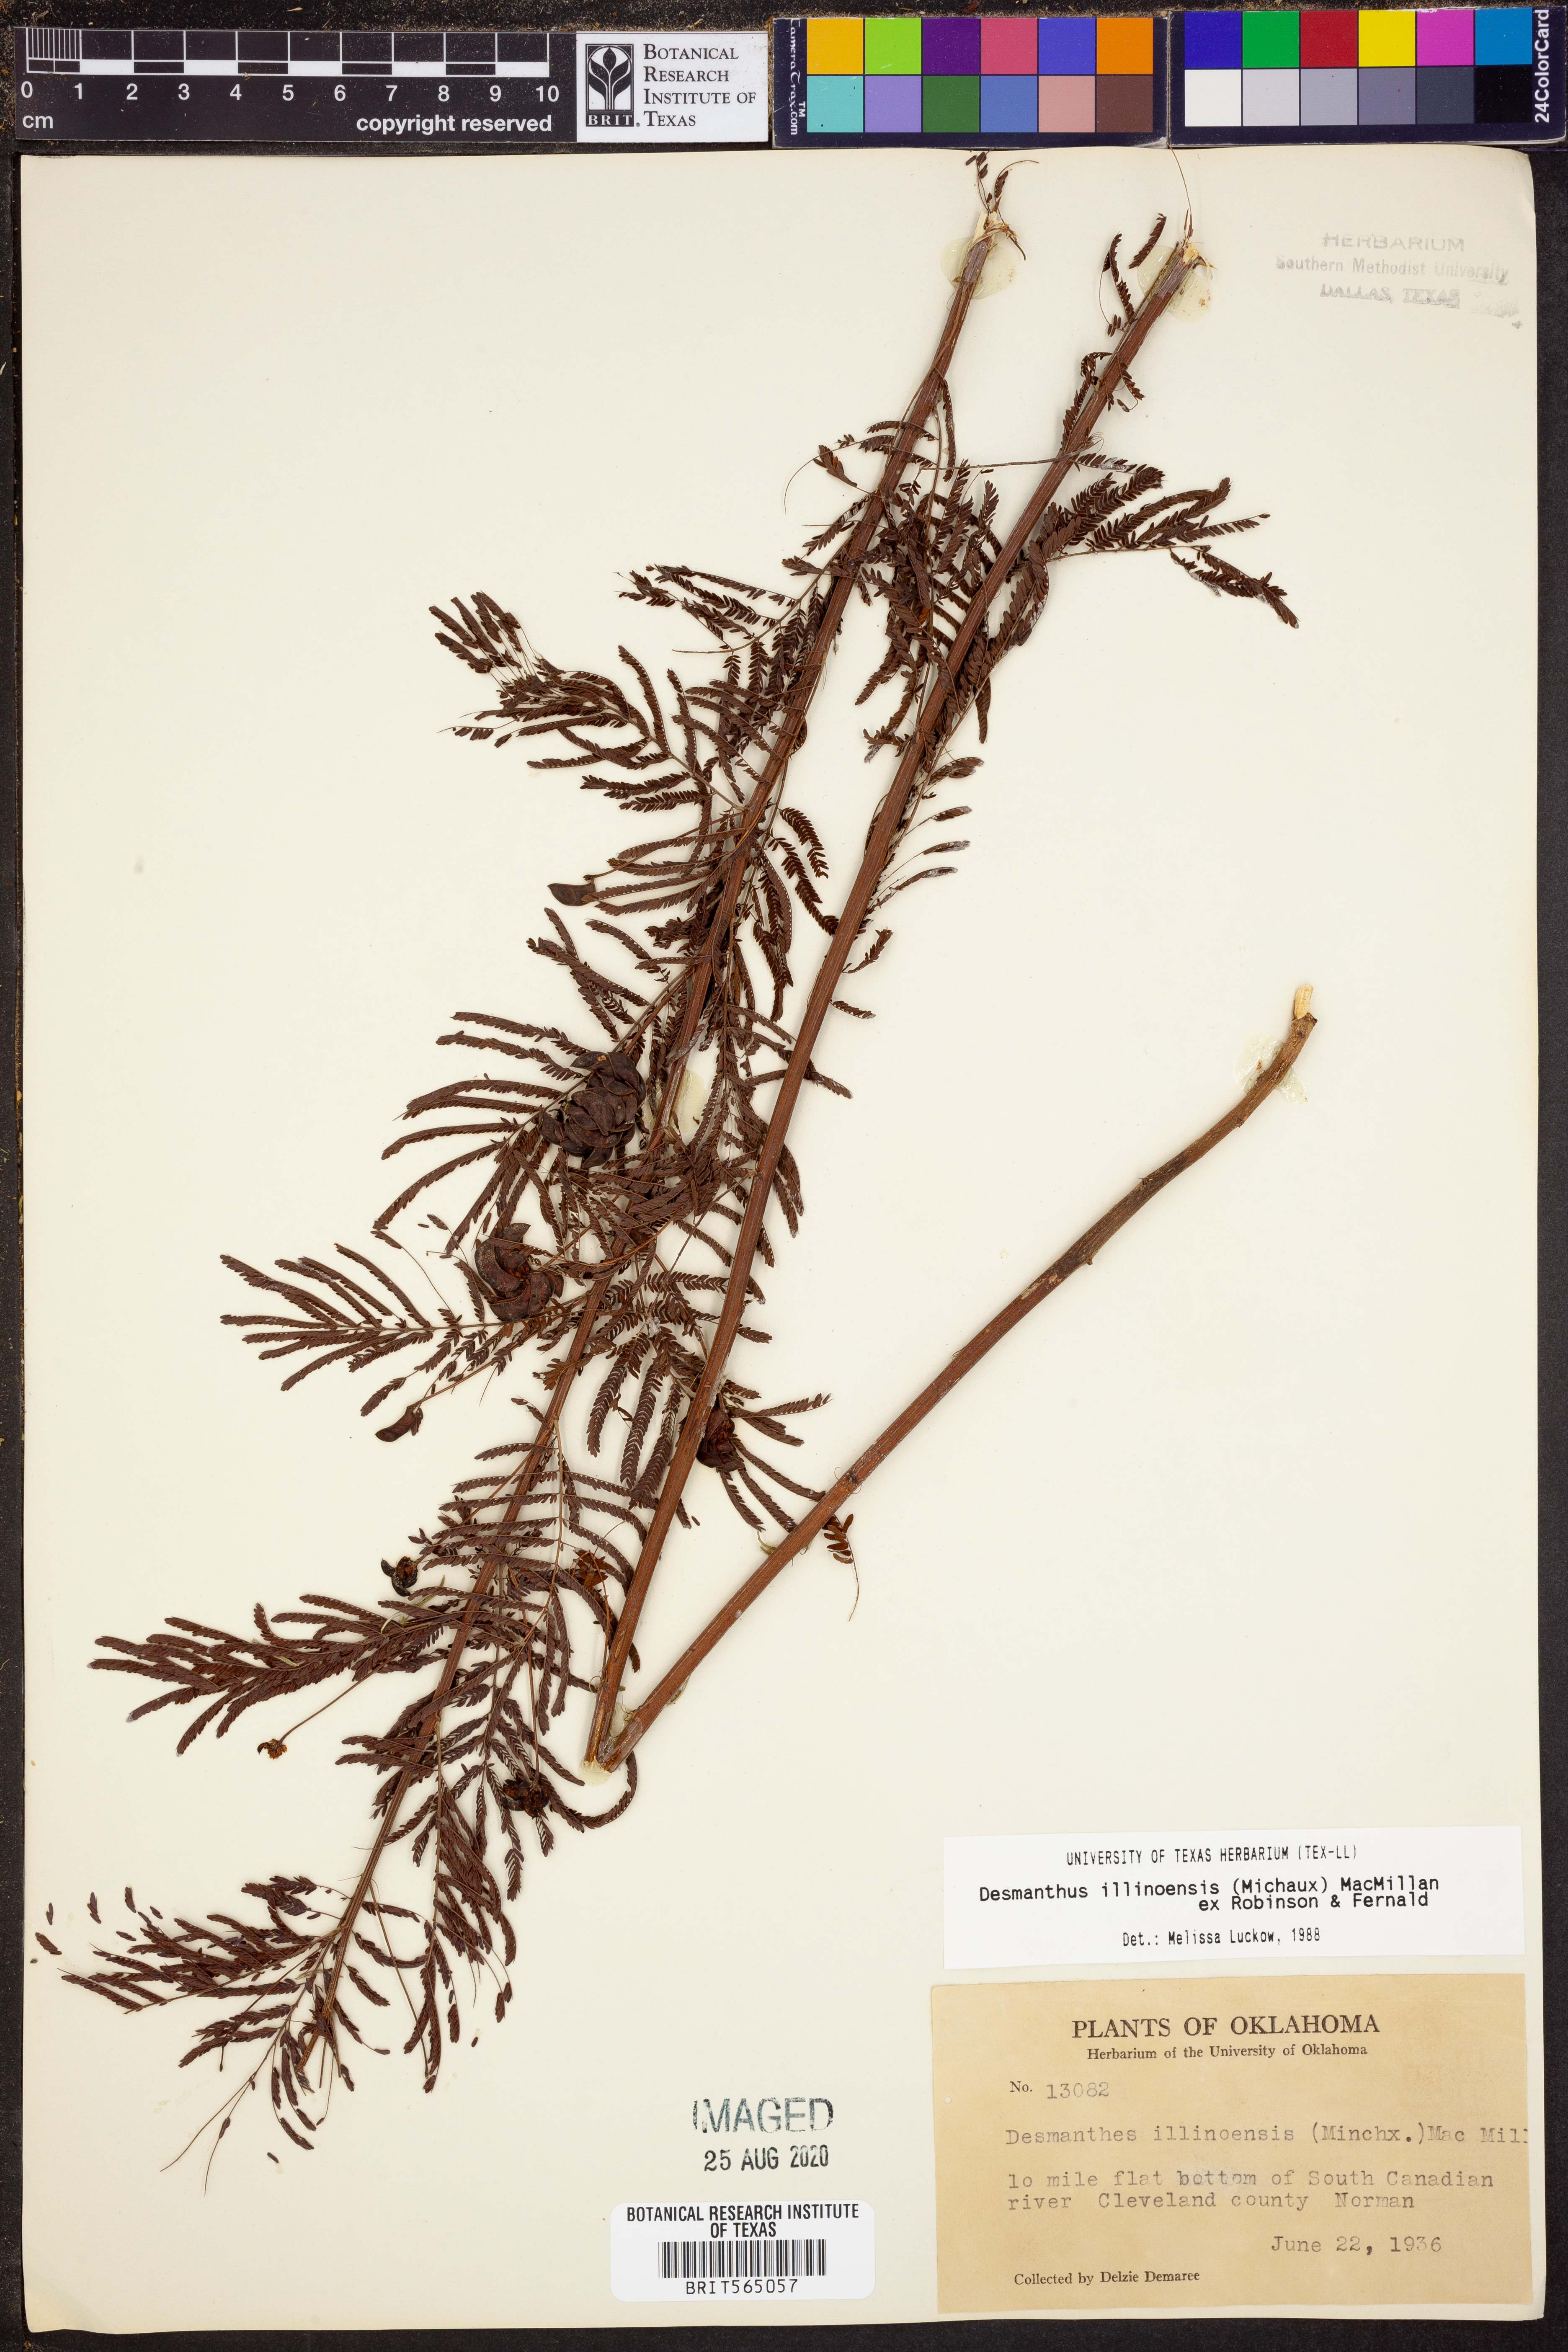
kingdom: Plantae
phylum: Tracheophyta
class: Magnoliopsida
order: Fabales
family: Fabaceae
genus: Desmanthus
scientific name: Desmanthus illinoensis
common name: Illinois bundle-flower
